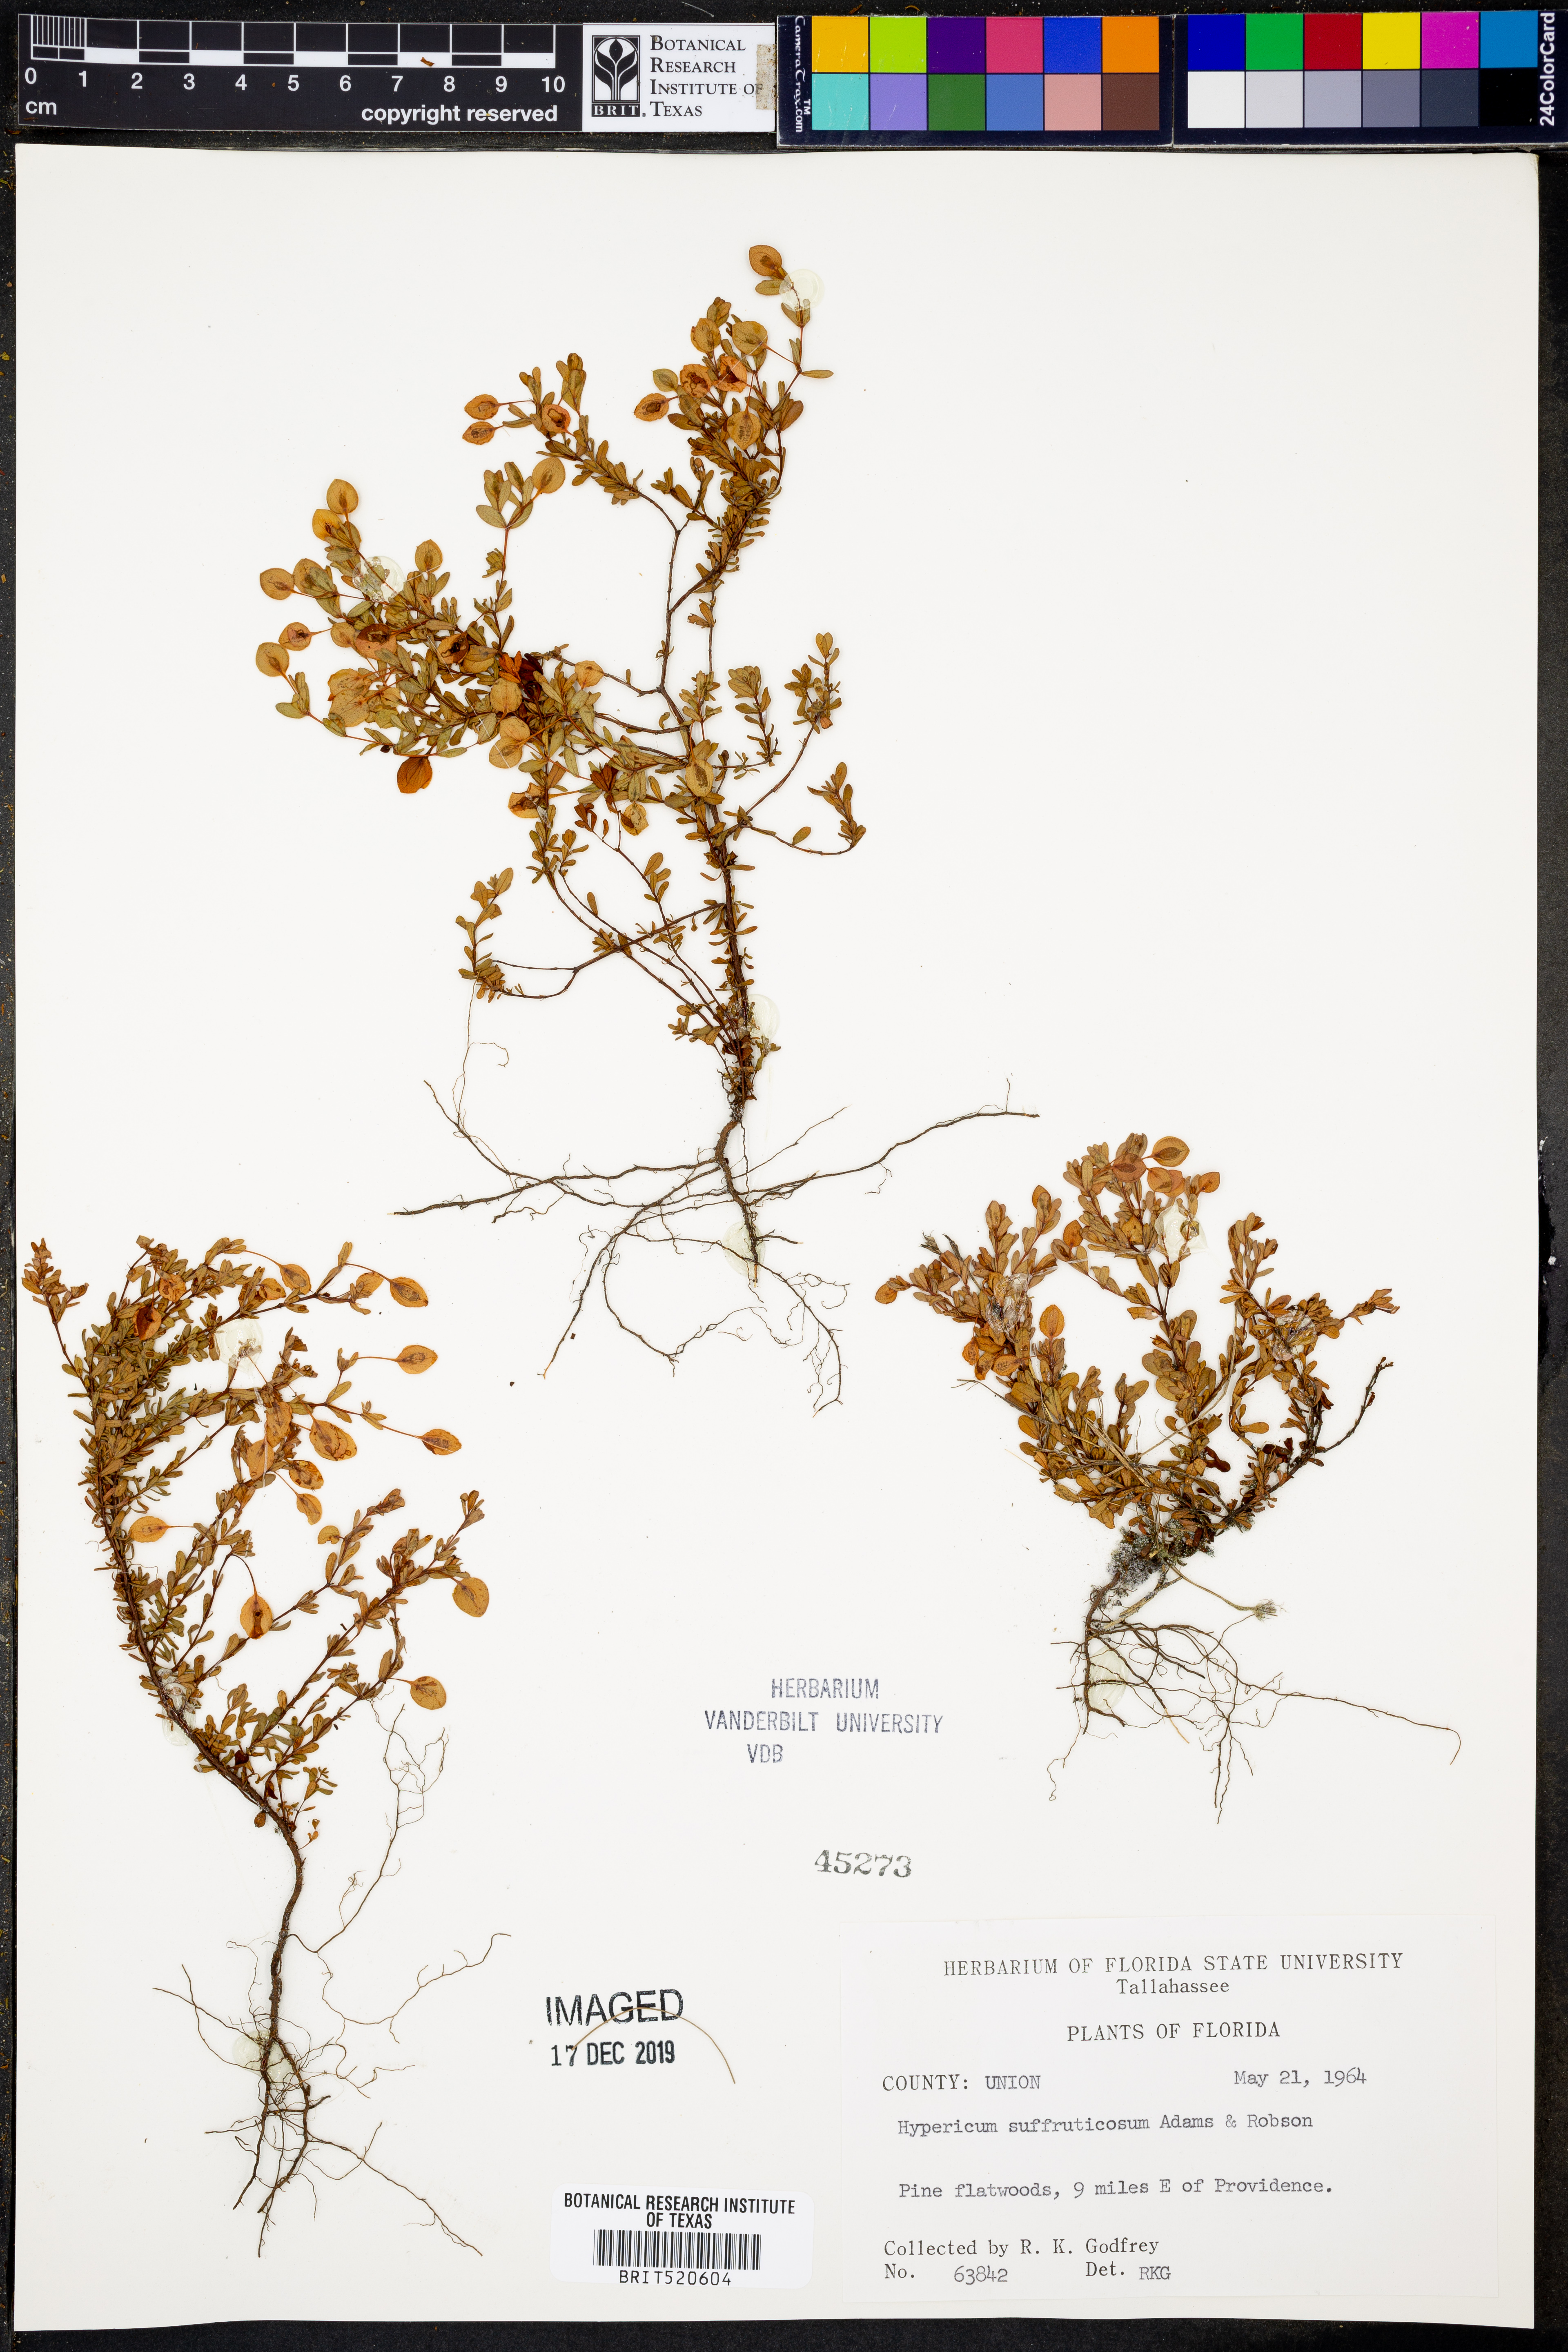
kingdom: Plantae
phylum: Tracheophyta
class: Magnoliopsida
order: Malpighiales
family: Hypericaceae
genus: Hypericum
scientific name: Hypericum suffruticosum
